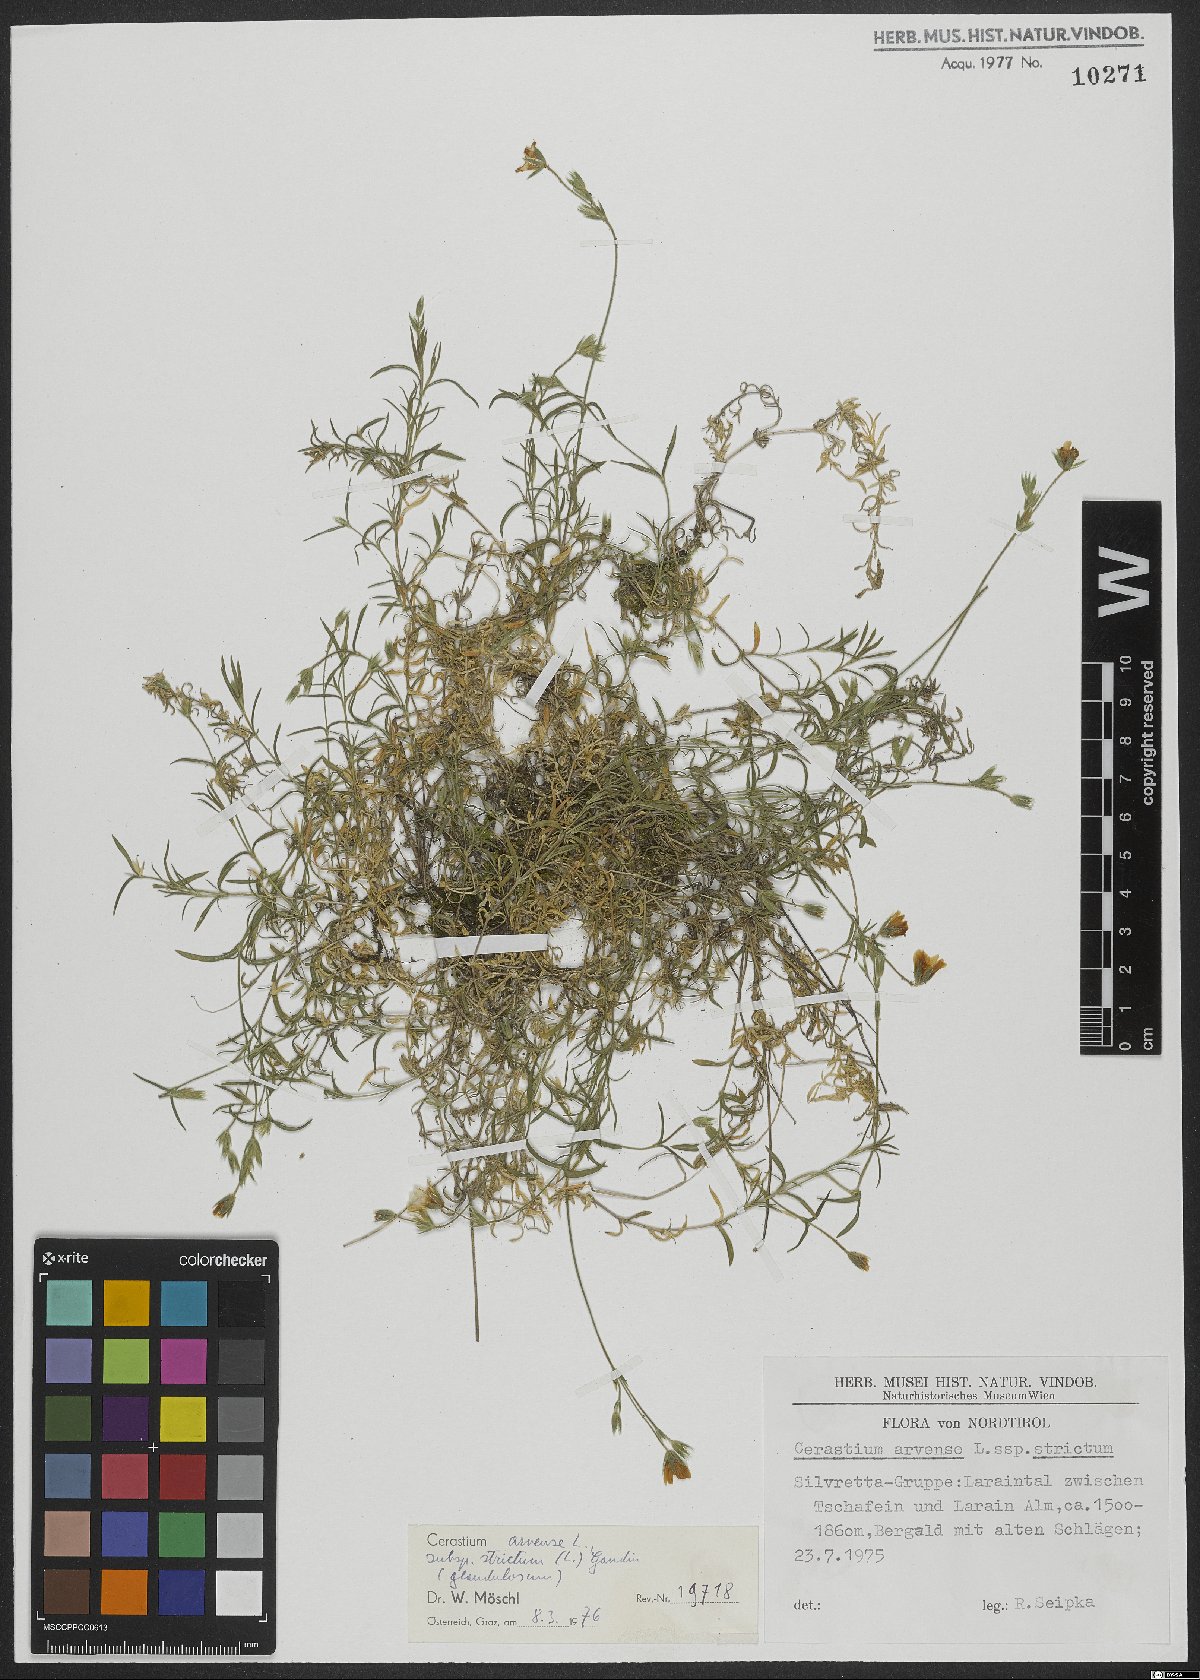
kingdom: Plantae
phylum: Tracheophyta
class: Magnoliopsida
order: Caryophyllales
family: Caryophyllaceae
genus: Cerastium
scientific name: Cerastium elongatum
